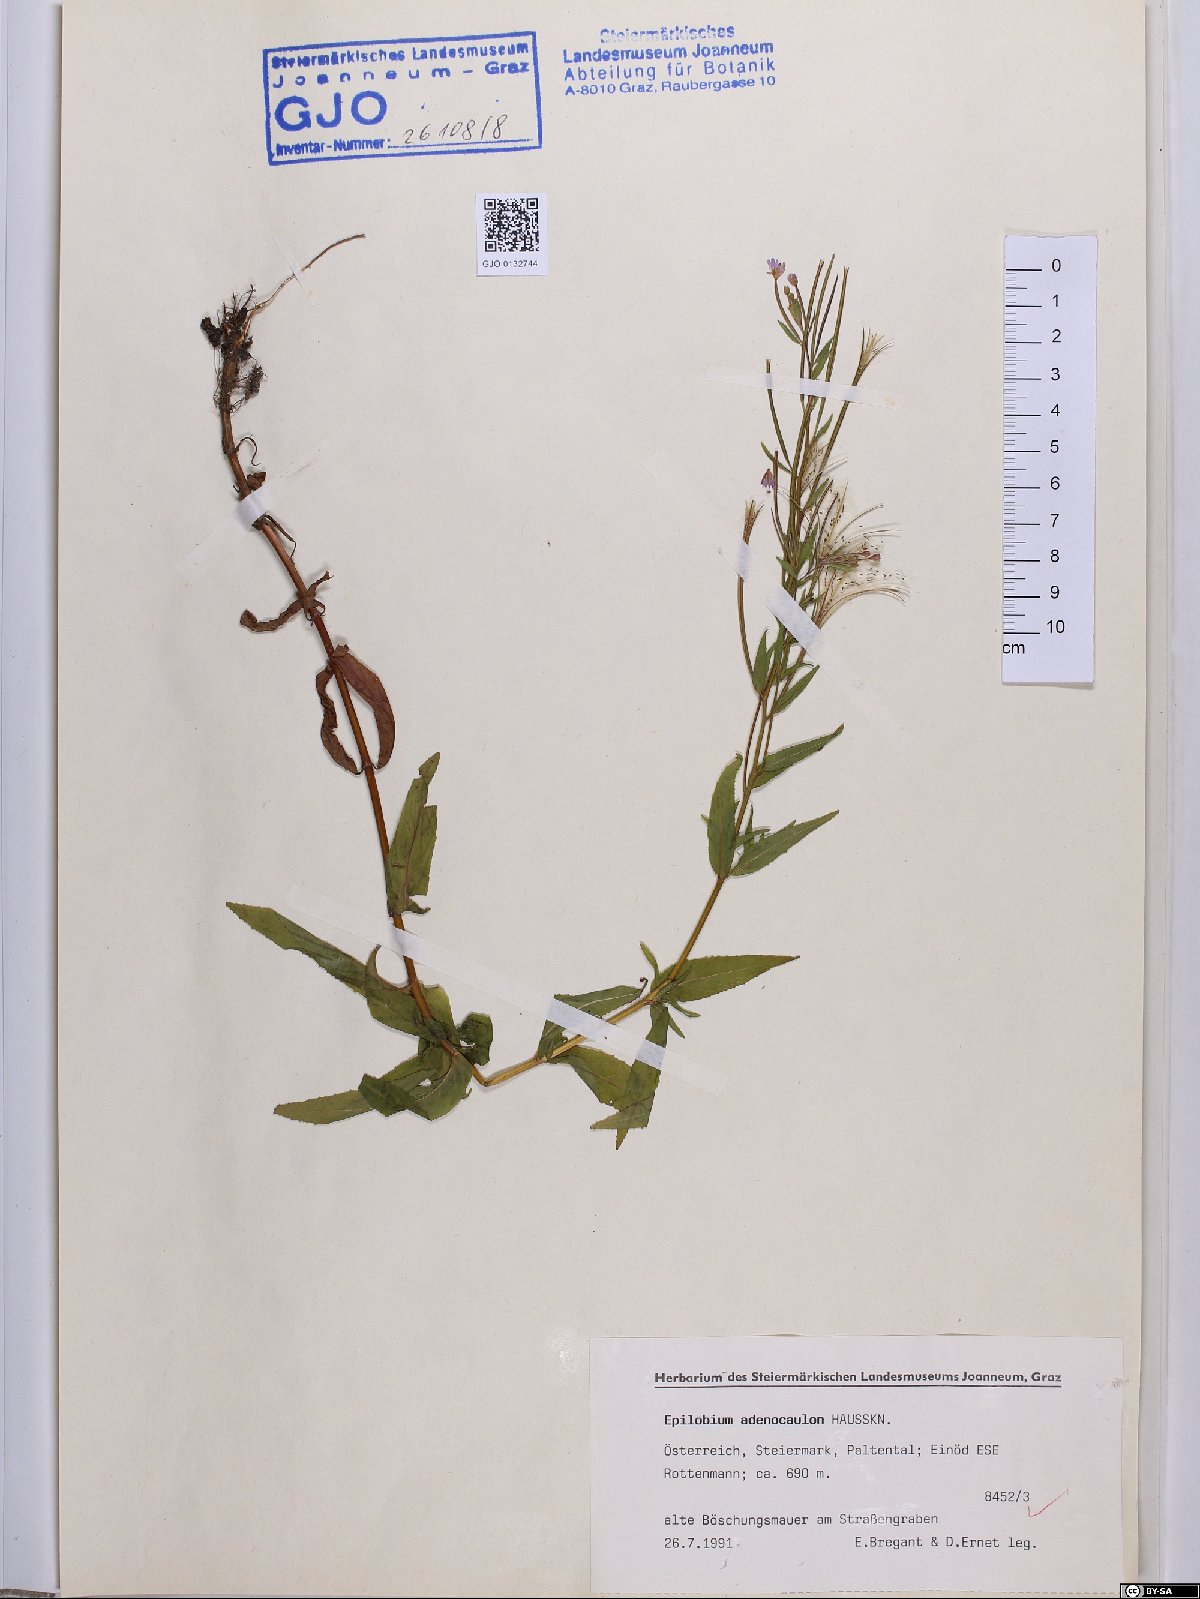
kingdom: Plantae
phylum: Tracheophyta
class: Magnoliopsida
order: Myrtales
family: Onagraceae
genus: Epilobium
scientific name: Epilobium ciliatum
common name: American willowherb
